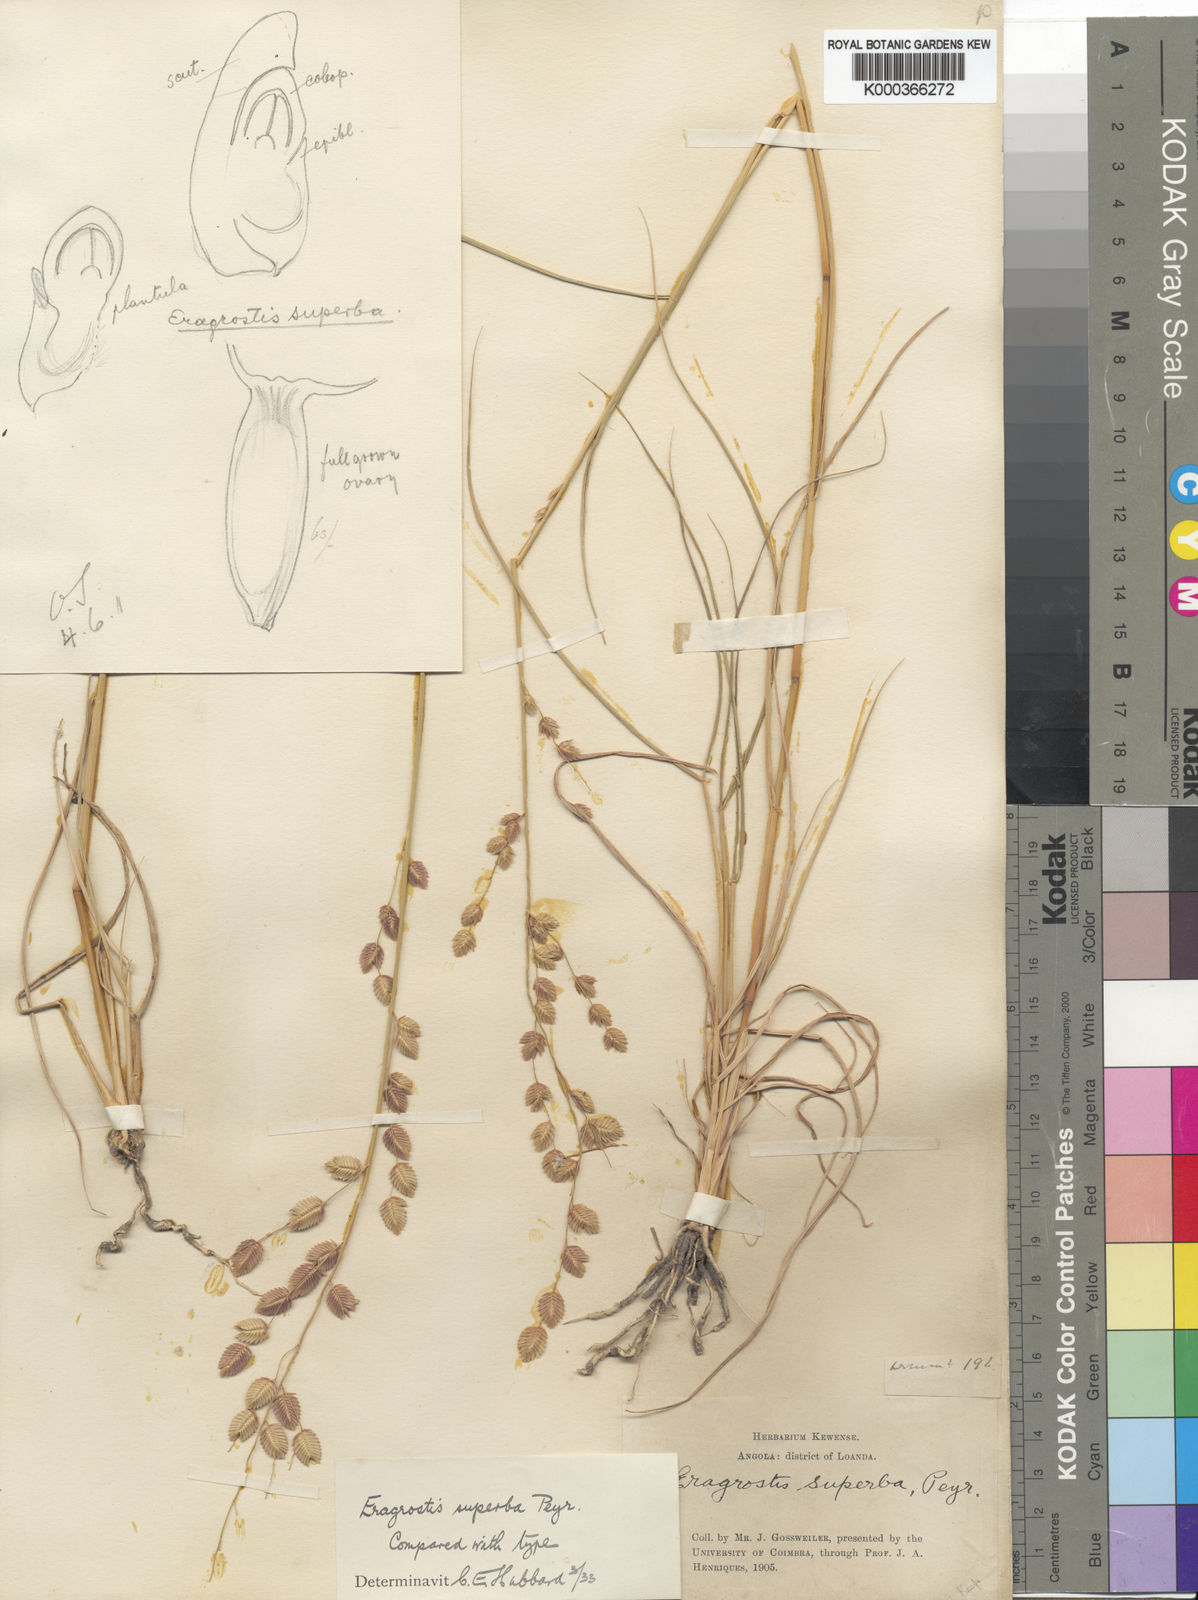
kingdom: Plantae
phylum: Tracheophyta
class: Liliopsida
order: Poales
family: Poaceae
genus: Eragrostis
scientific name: Eragrostis superba
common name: Wilman lovegrass
